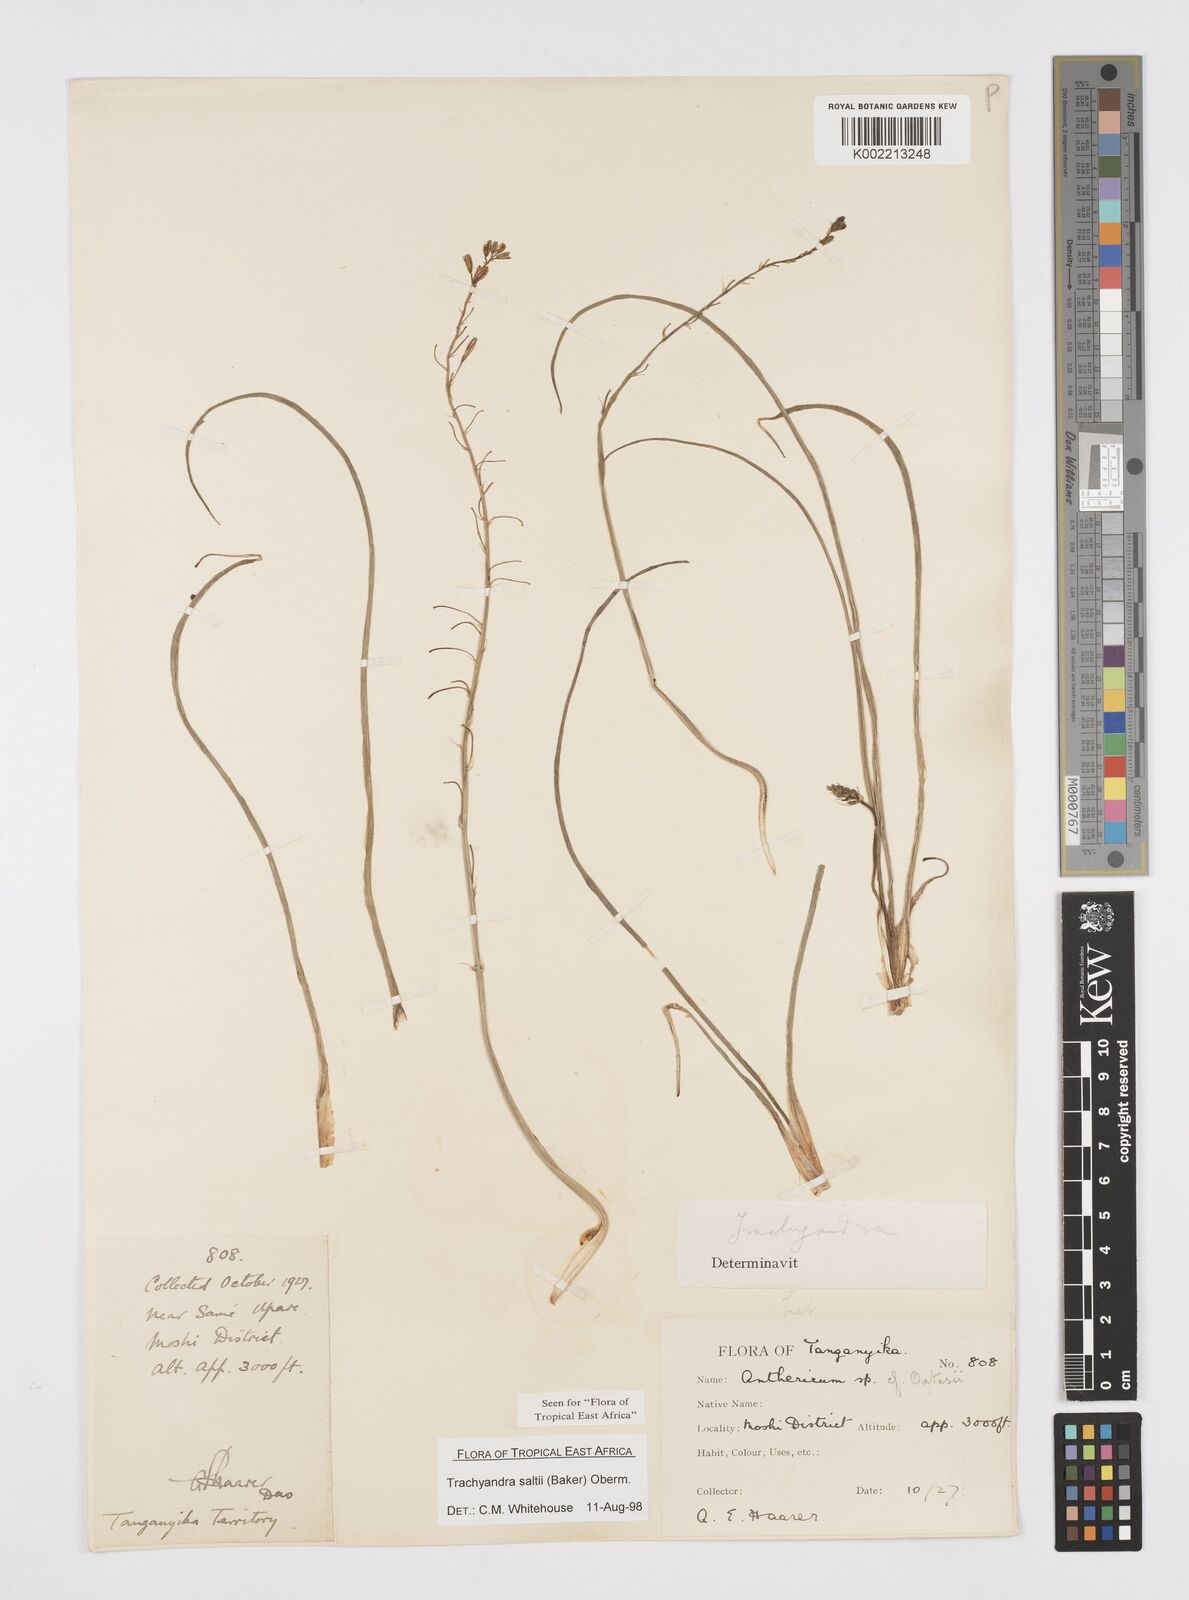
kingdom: Plantae
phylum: Tracheophyta
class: Liliopsida
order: Asparagales
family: Asphodelaceae
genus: Trachyandra
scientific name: Trachyandra saltii
